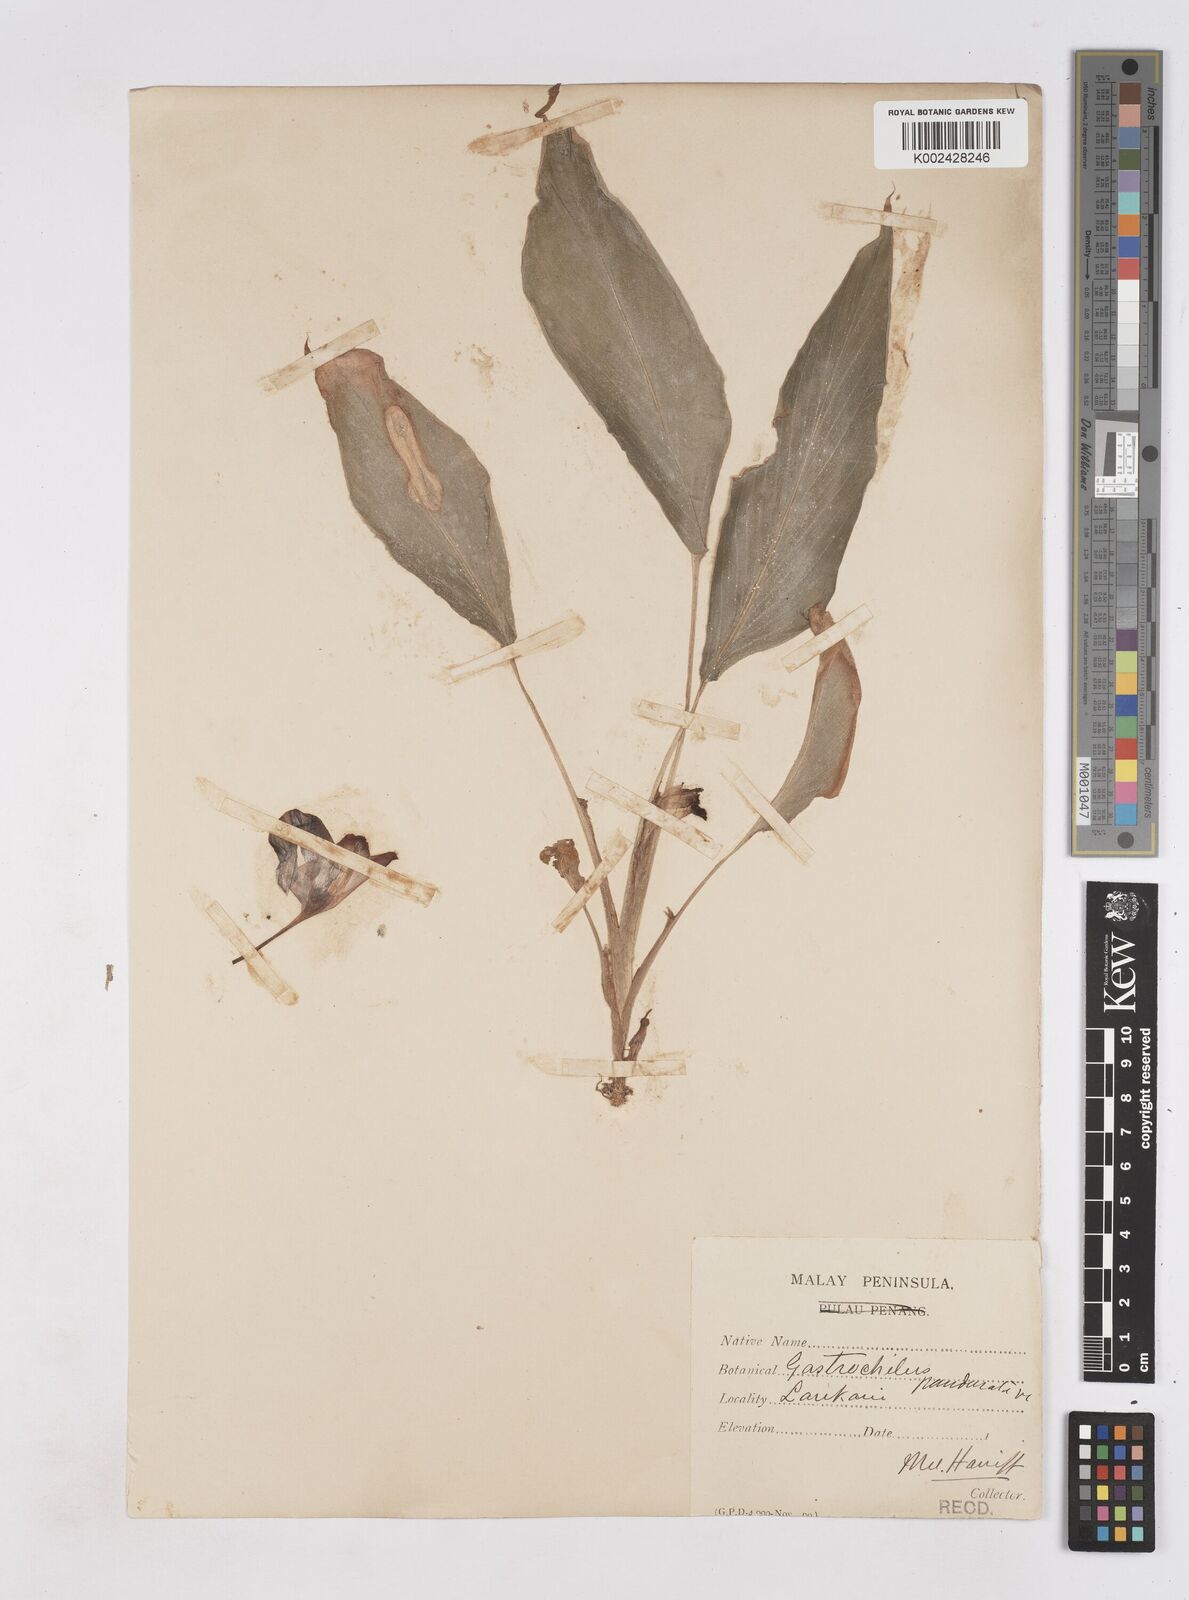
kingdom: Plantae
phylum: Tracheophyta
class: Liliopsida
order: Zingiberales
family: Zingiberaceae
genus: Boesenbergia
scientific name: Boesenbergia rotunda
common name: Chinese ginger
